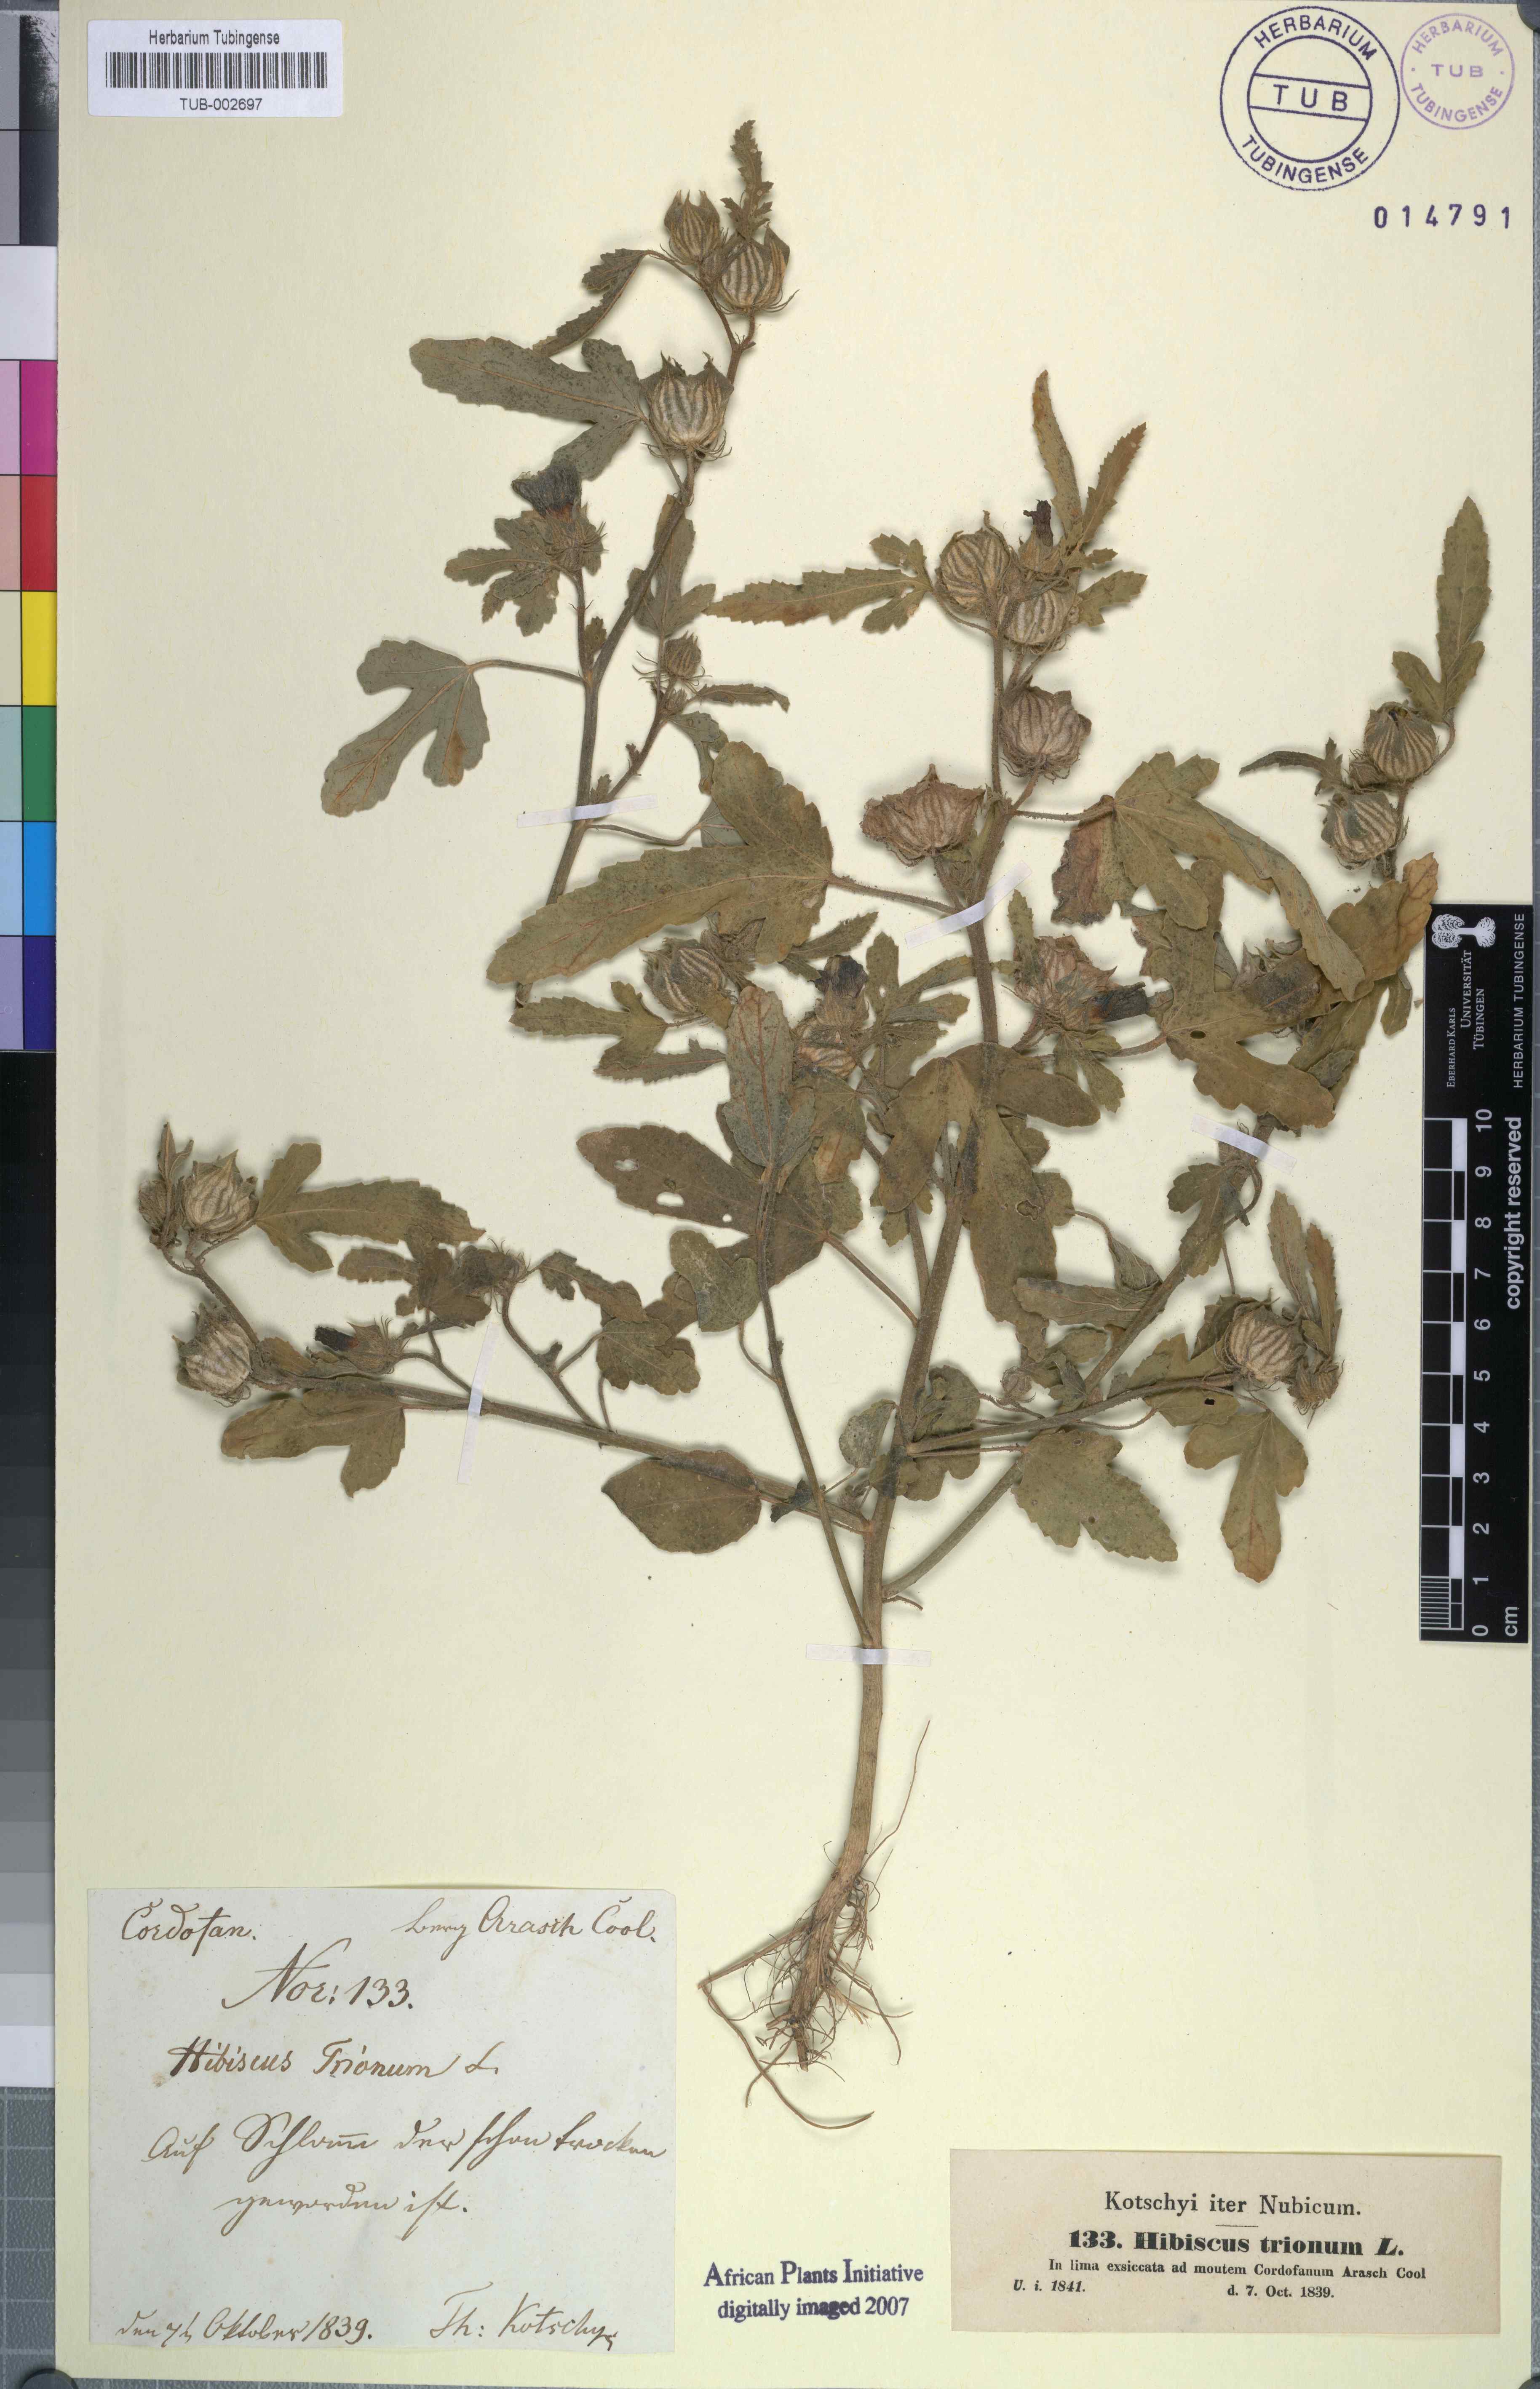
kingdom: Plantae
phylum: Tracheophyta
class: Magnoliopsida
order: Malvales
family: Malvaceae
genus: Hibiscus
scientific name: Hibiscus trionum
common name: Bladder ketmia
